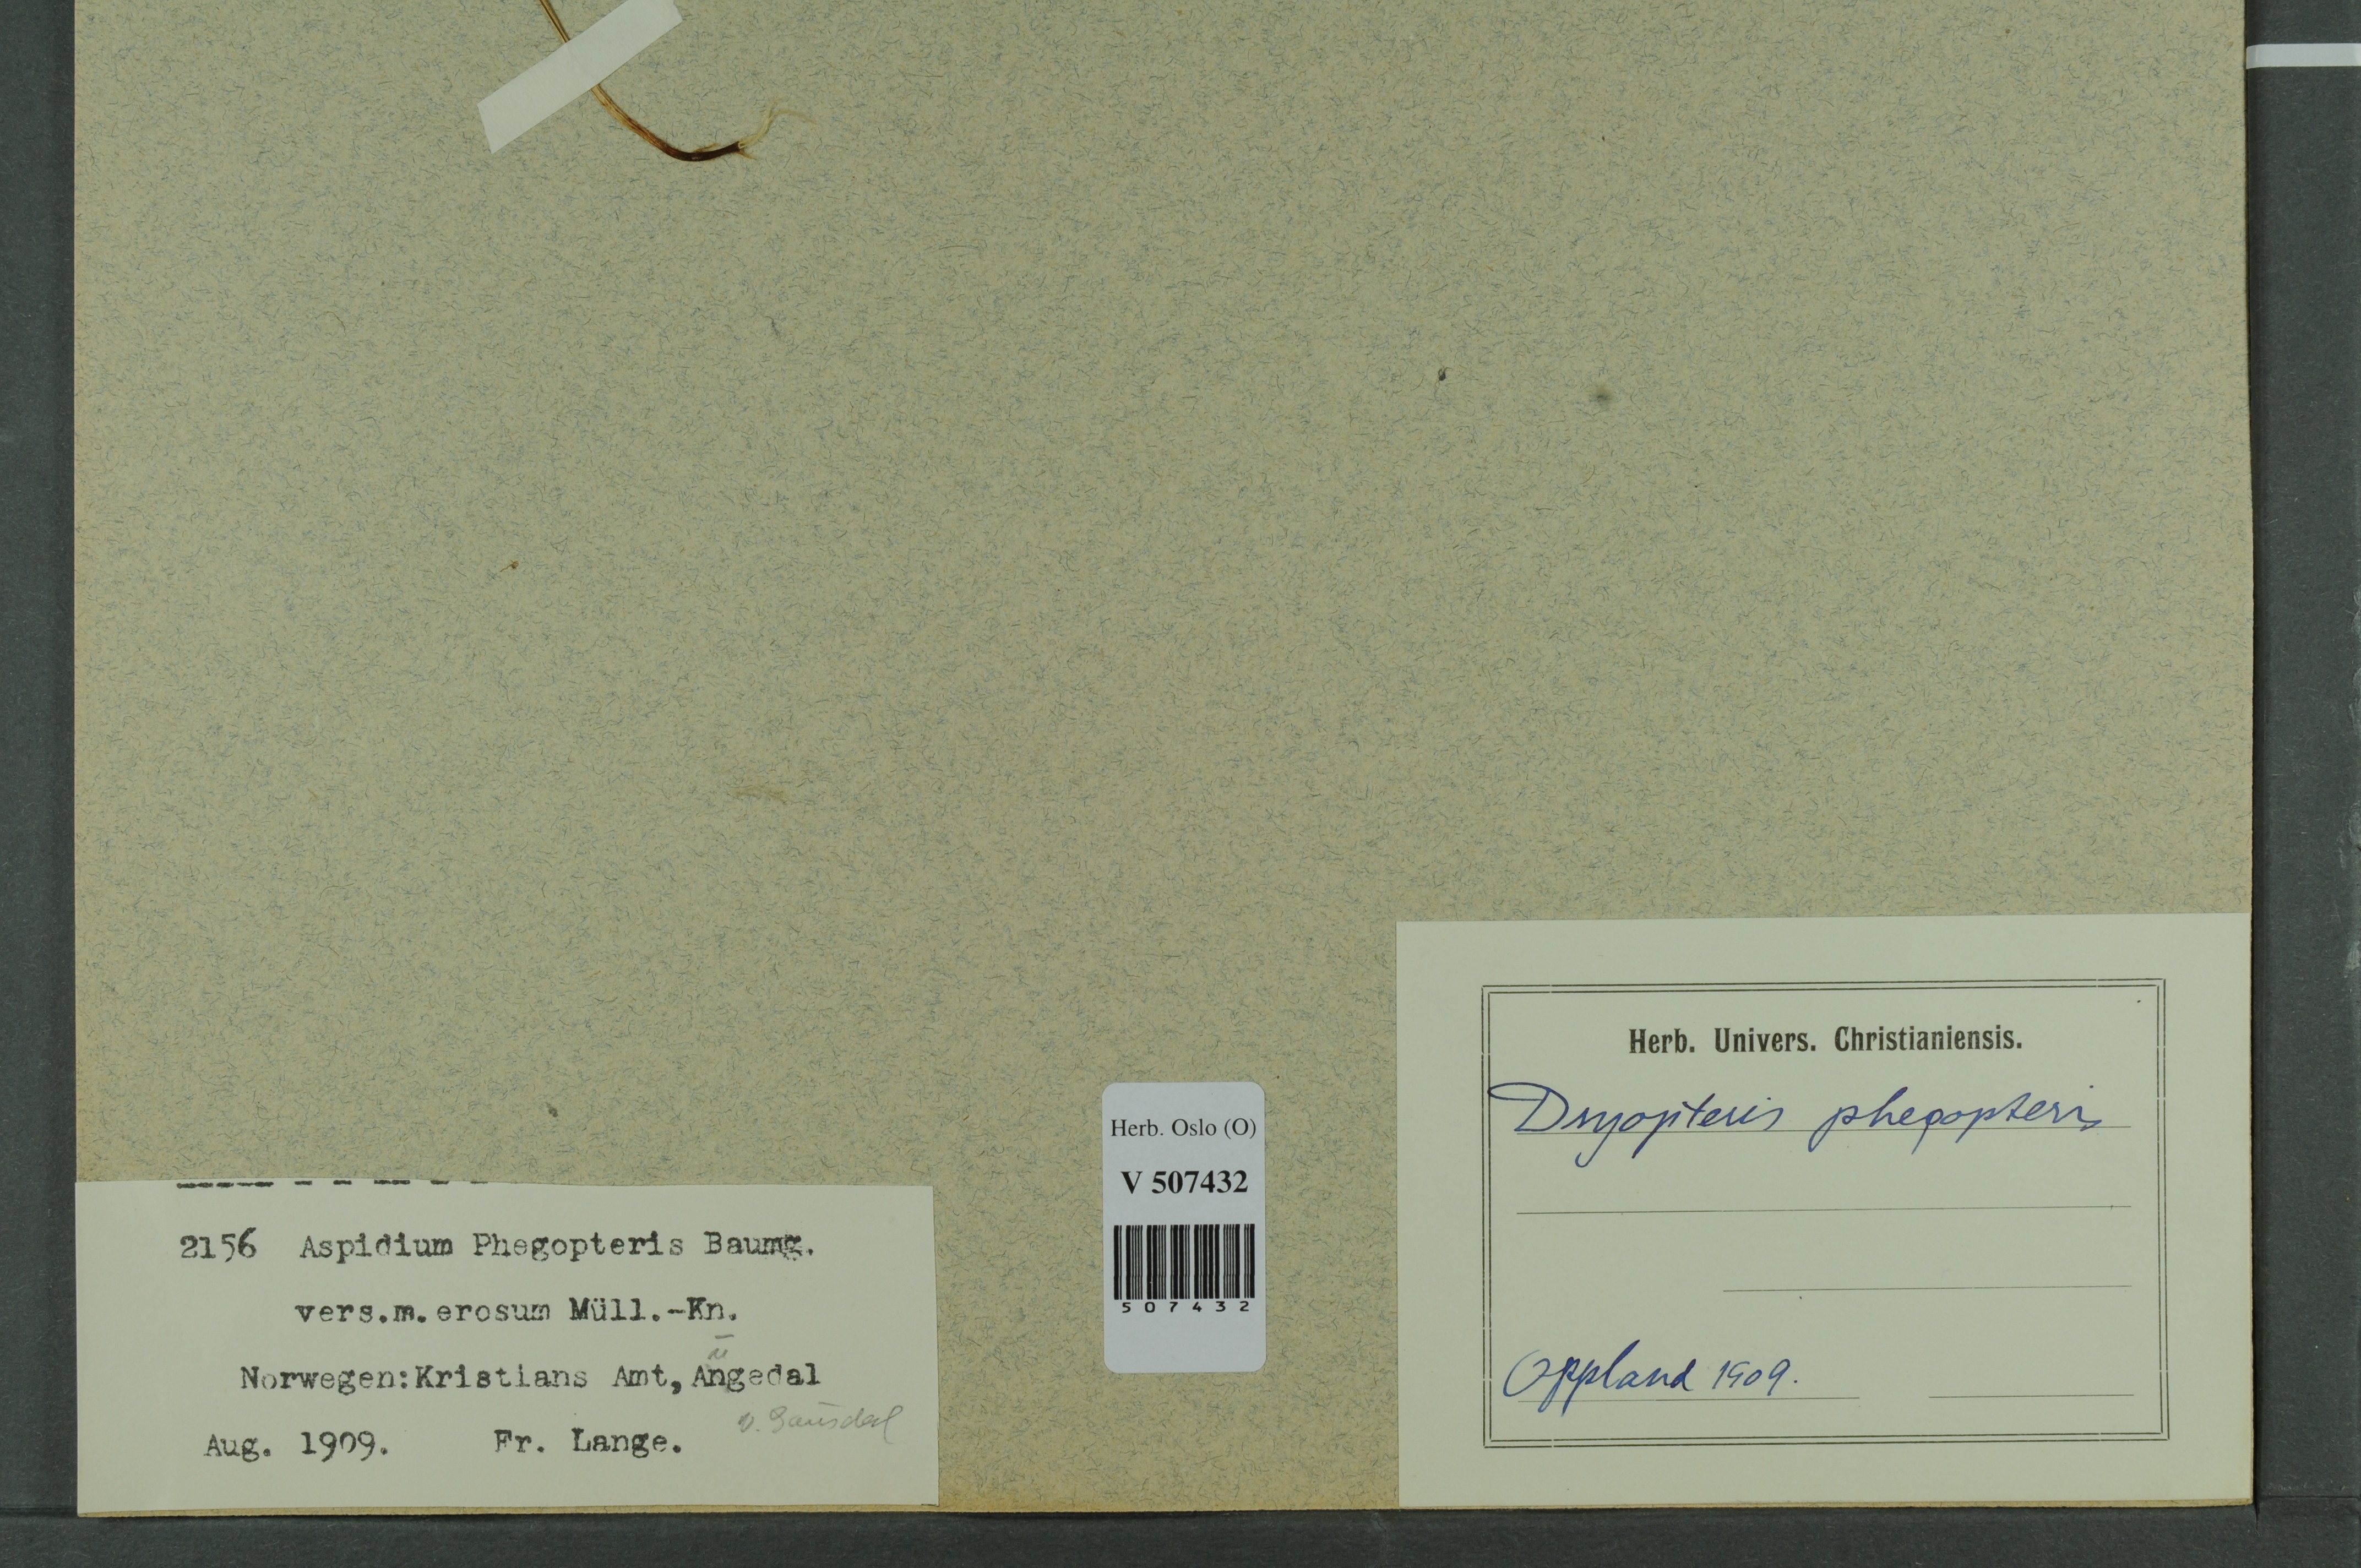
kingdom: Plantae
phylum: Tracheophyta
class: Polypodiopsida
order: Polypodiales
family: Thelypteridaceae
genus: Phegopteris
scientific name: Phegopteris connectilis
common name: Beech fern
